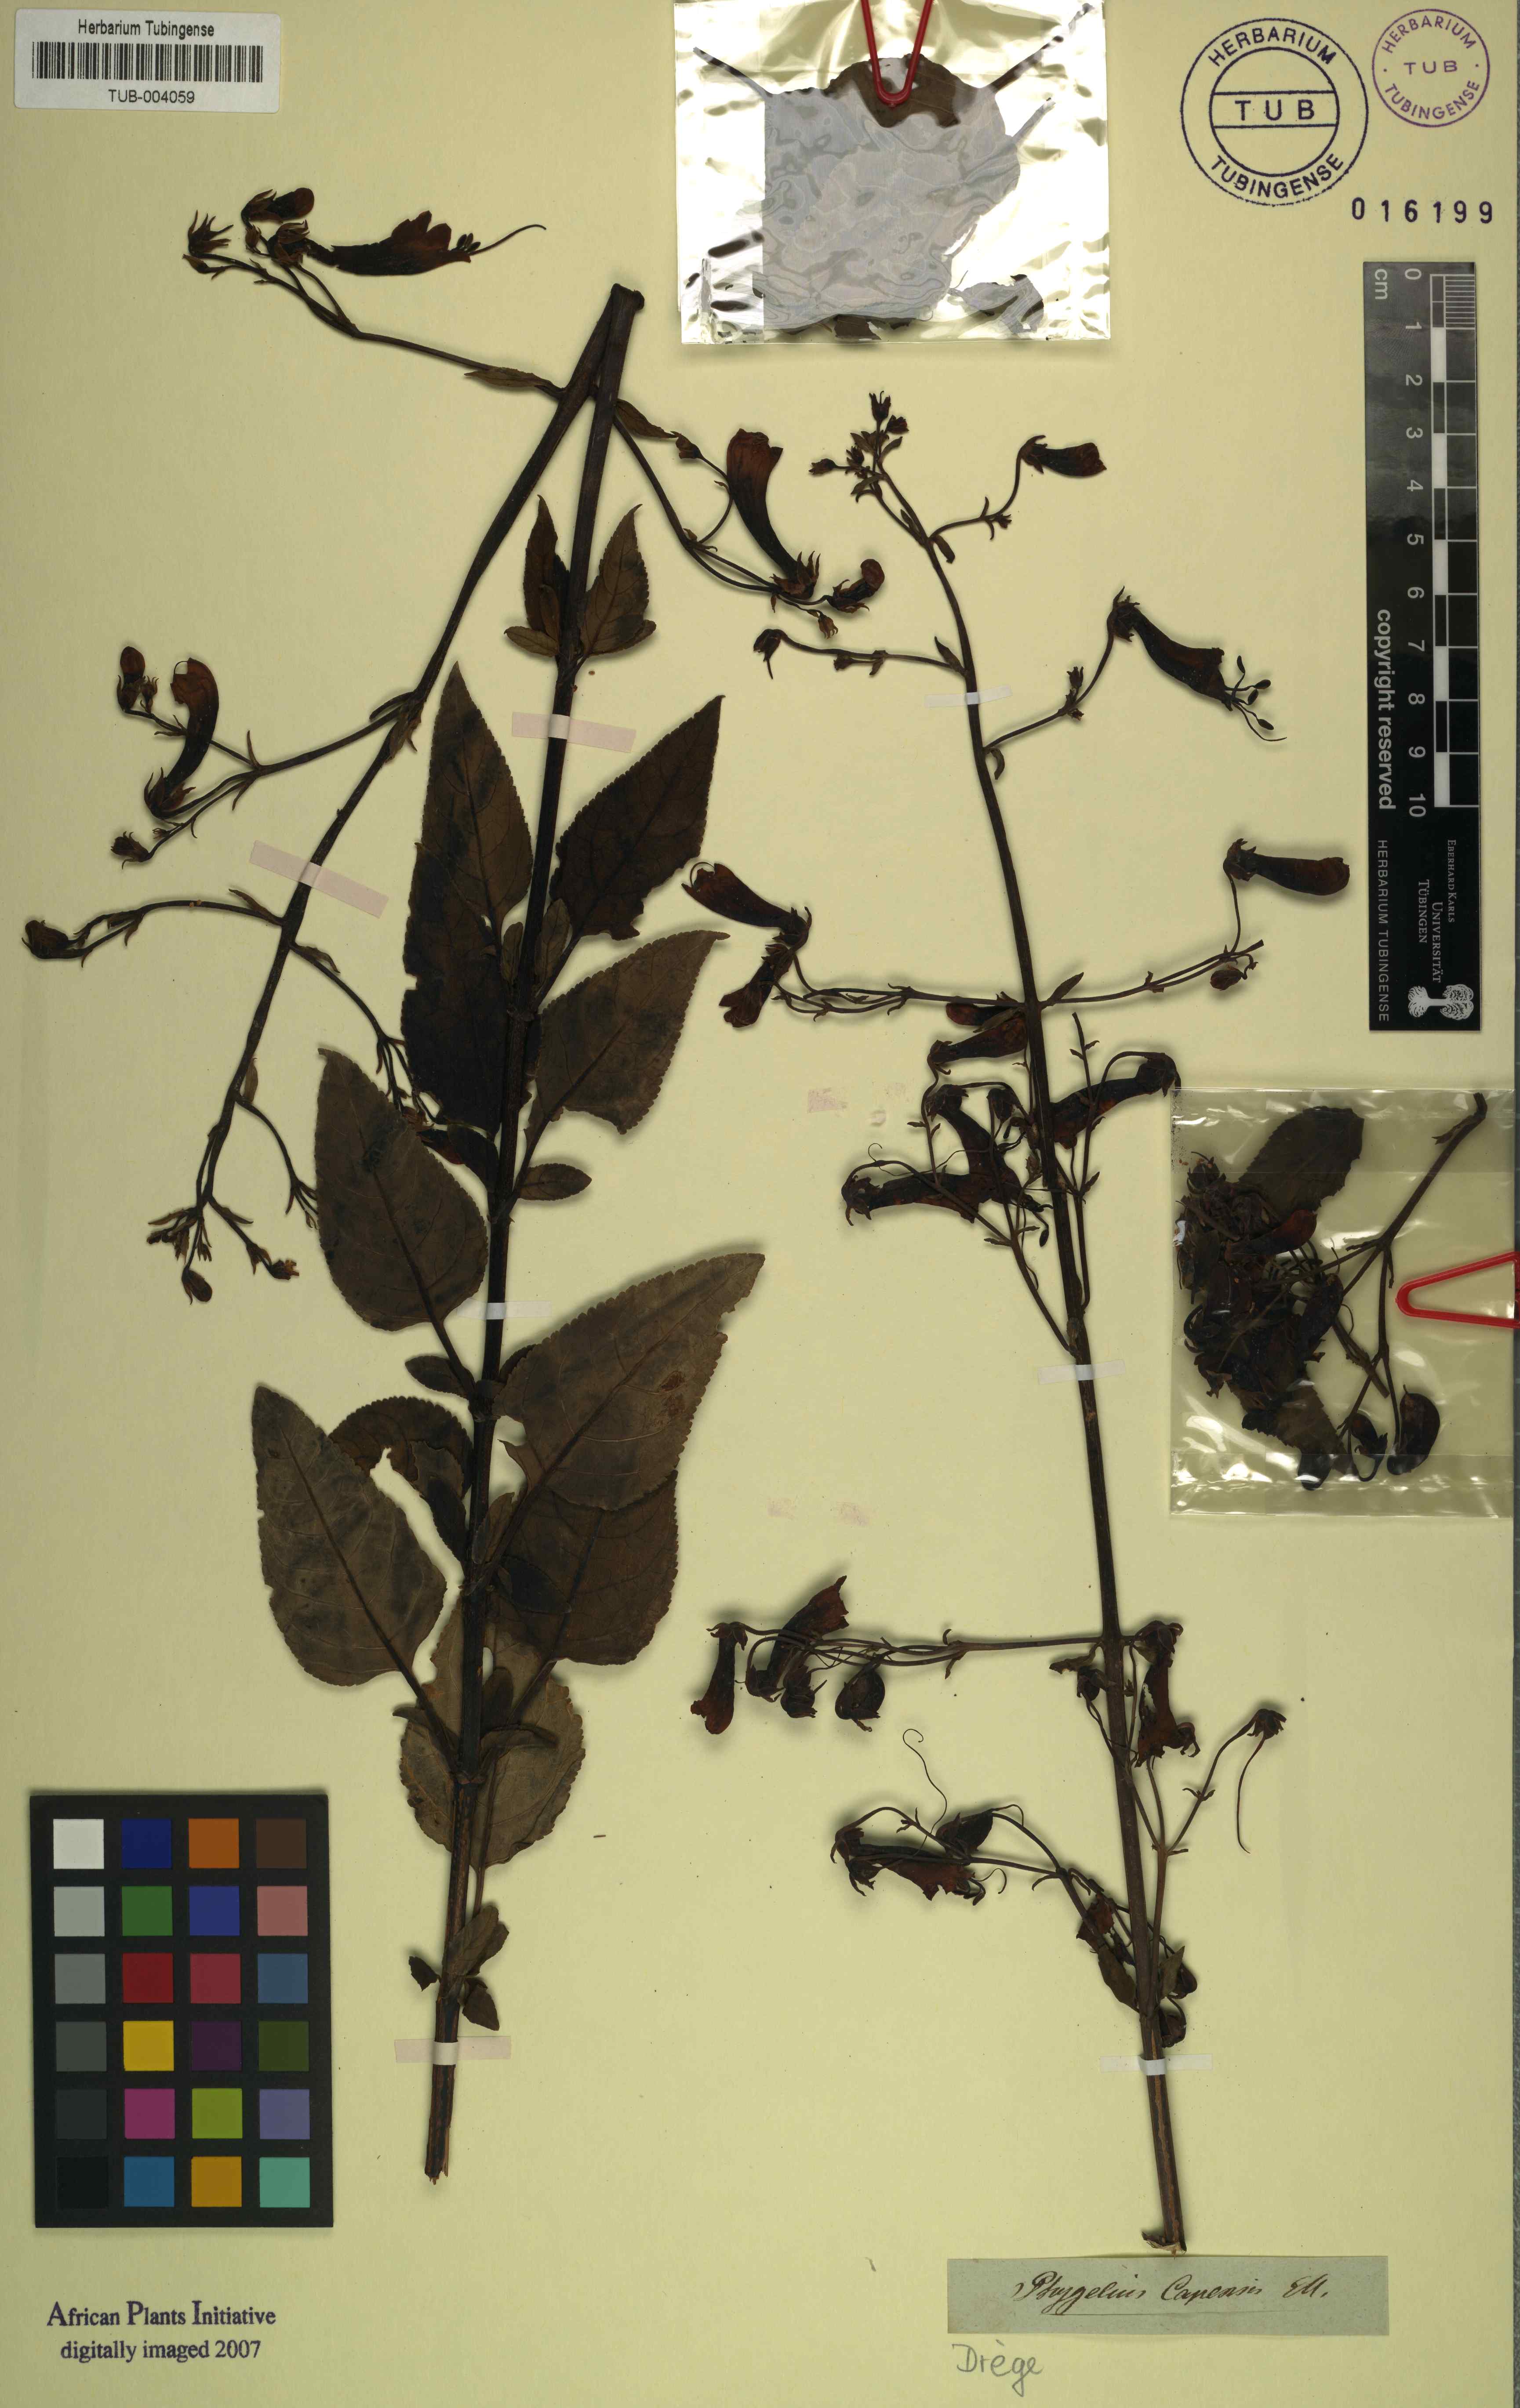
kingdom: Plantae
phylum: Tracheophyta
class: Magnoliopsida
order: Lamiales
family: Scrophulariaceae
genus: Phygelius
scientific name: Phygelius capensis
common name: Cape figwort
